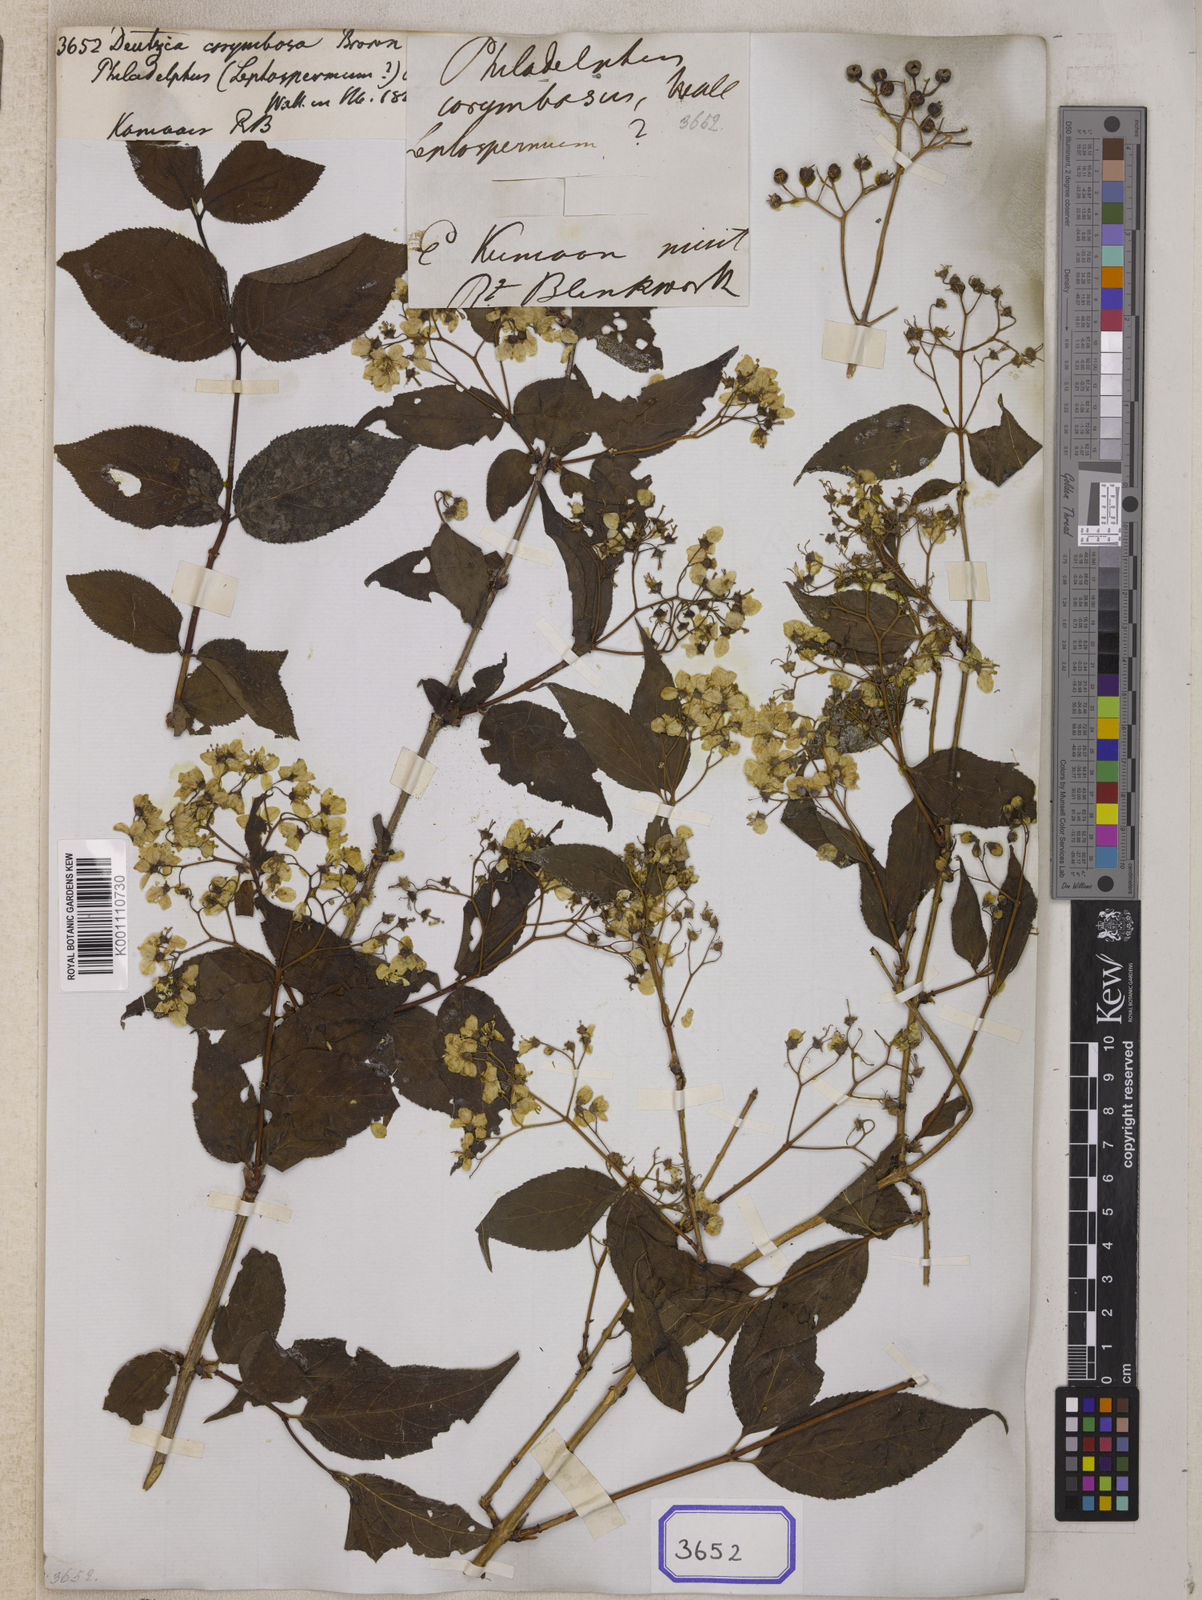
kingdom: Plantae
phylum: Tracheophyta
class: Magnoliopsida
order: Cornales
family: Hydrangeaceae
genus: Deutzia
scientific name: Deutzia
